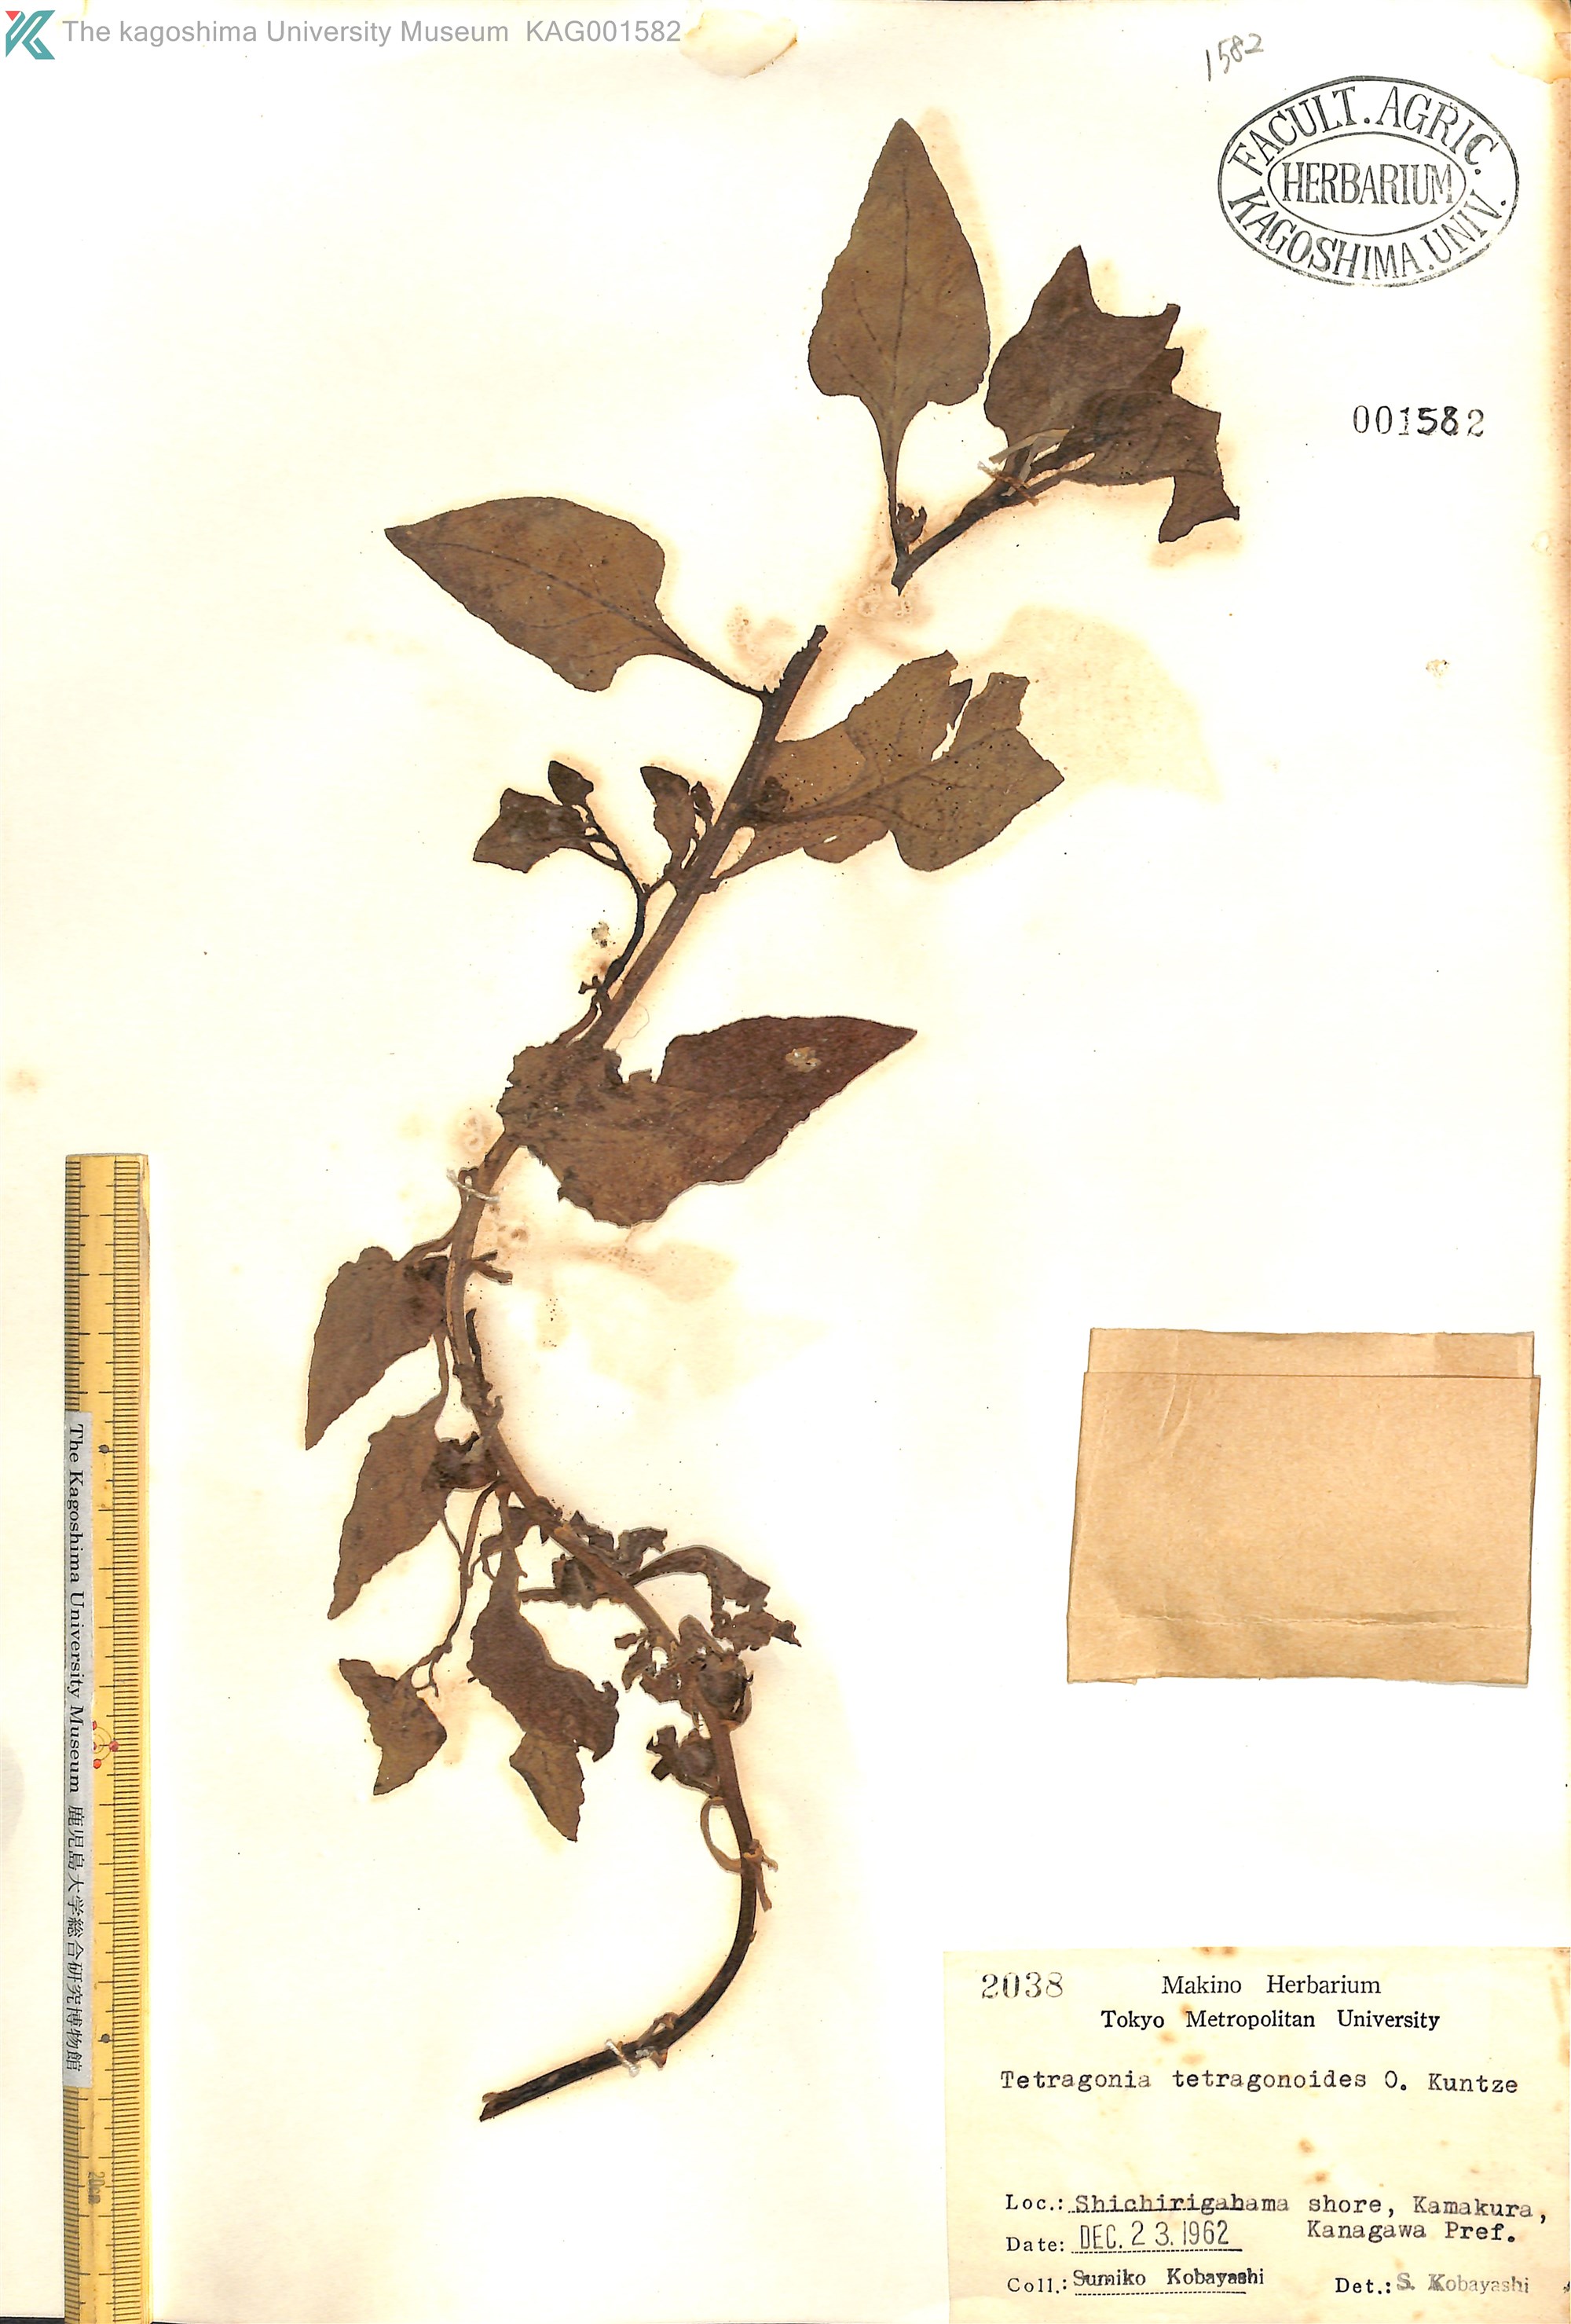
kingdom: Plantae
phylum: Tracheophyta
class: Magnoliopsida
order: Caryophyllales
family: Aizoaceae
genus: Tetragonia
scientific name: Tetragonia tetragonoides
